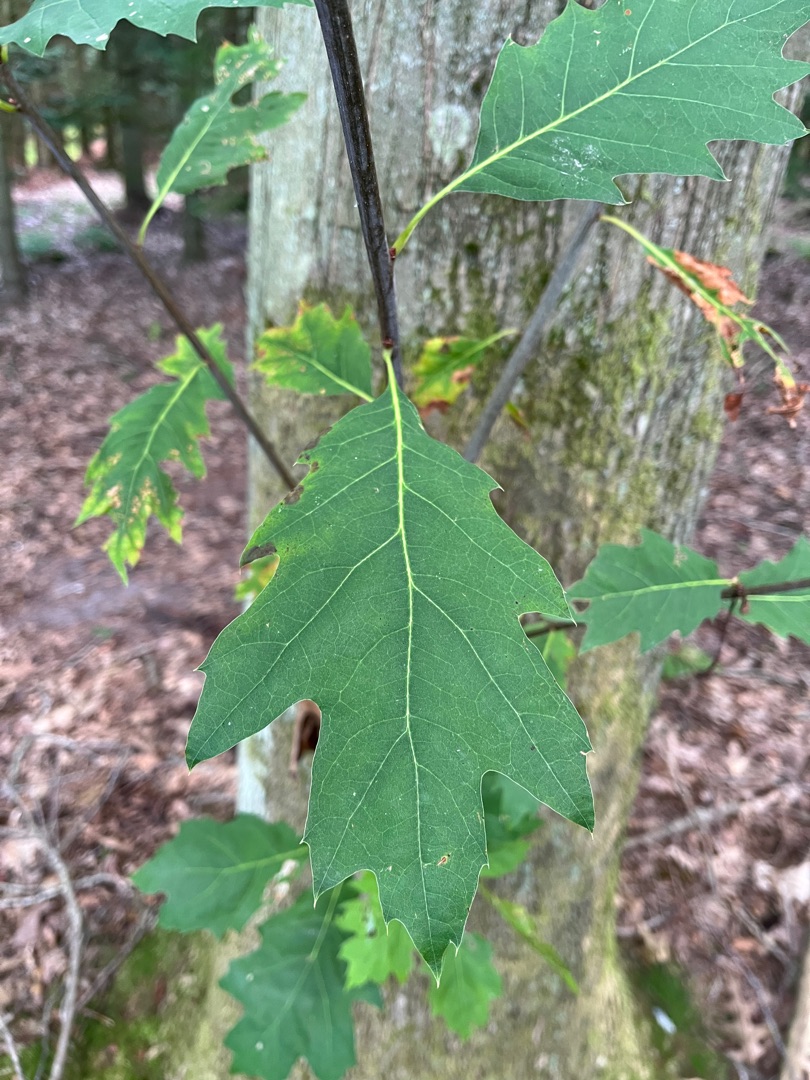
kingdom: Plantae
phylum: Tracheophyta
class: Magnoliopsida
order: Fagales
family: Fagaceae
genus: Quercus
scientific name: Quercus rubra
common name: Rød-eg
